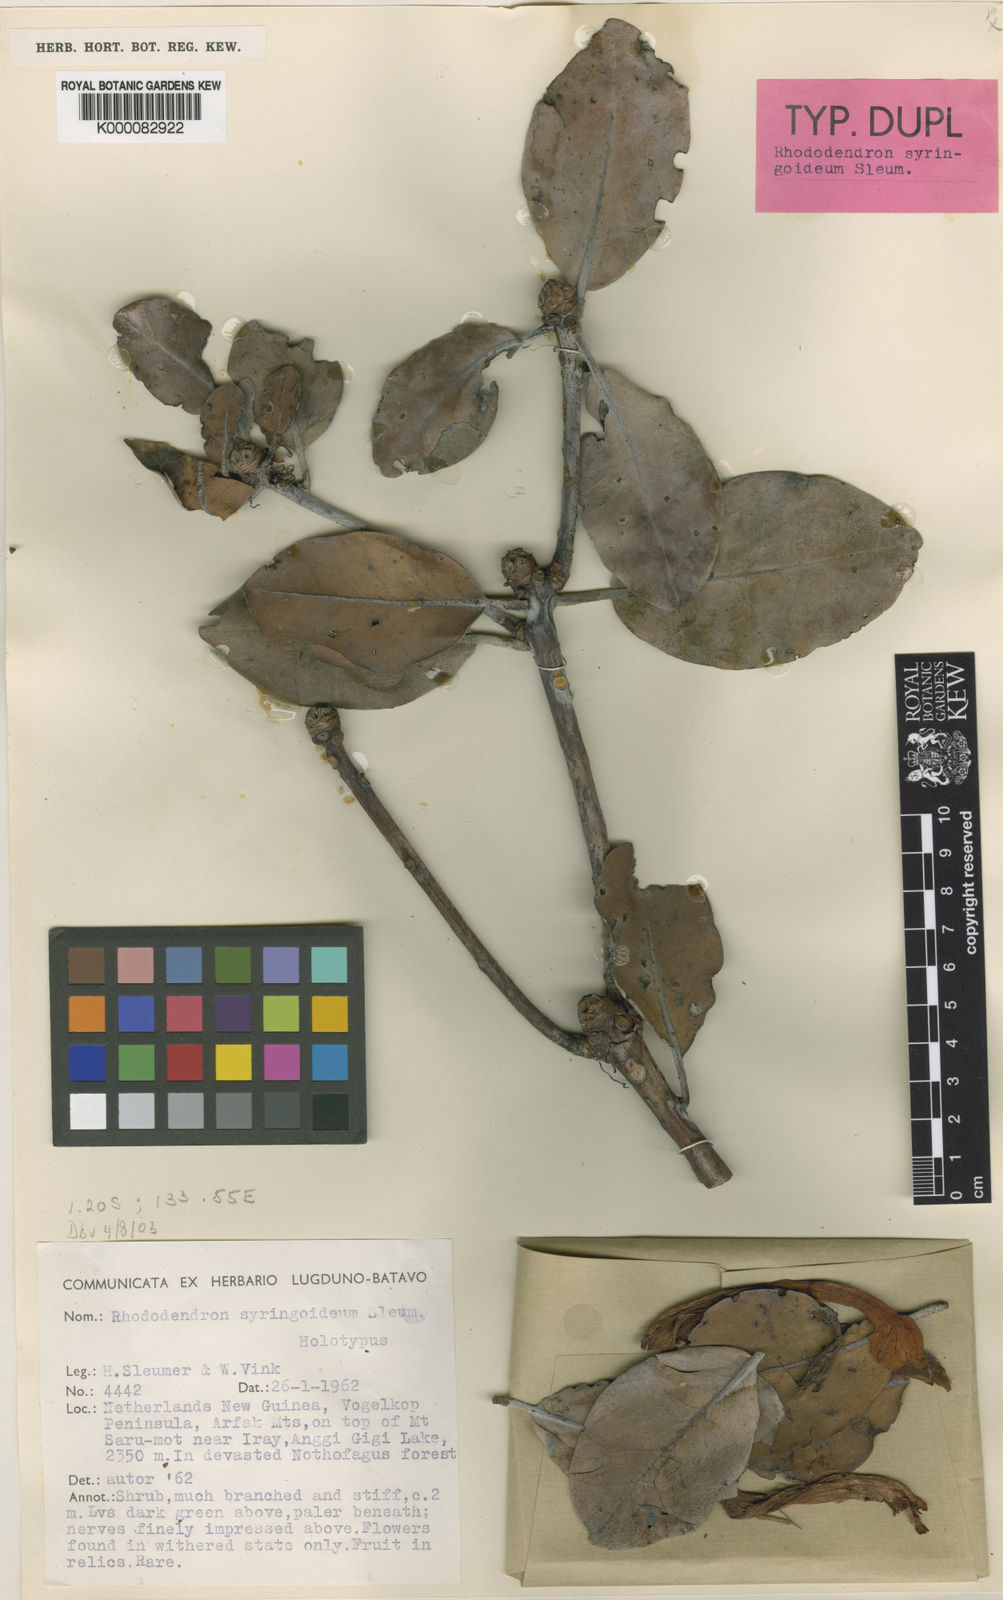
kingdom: Plantae
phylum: Tracheophyta
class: Magnoliopsida
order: Ericales
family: Ericaceae
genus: Rhododendron
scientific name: Rhododendron syringoideum
